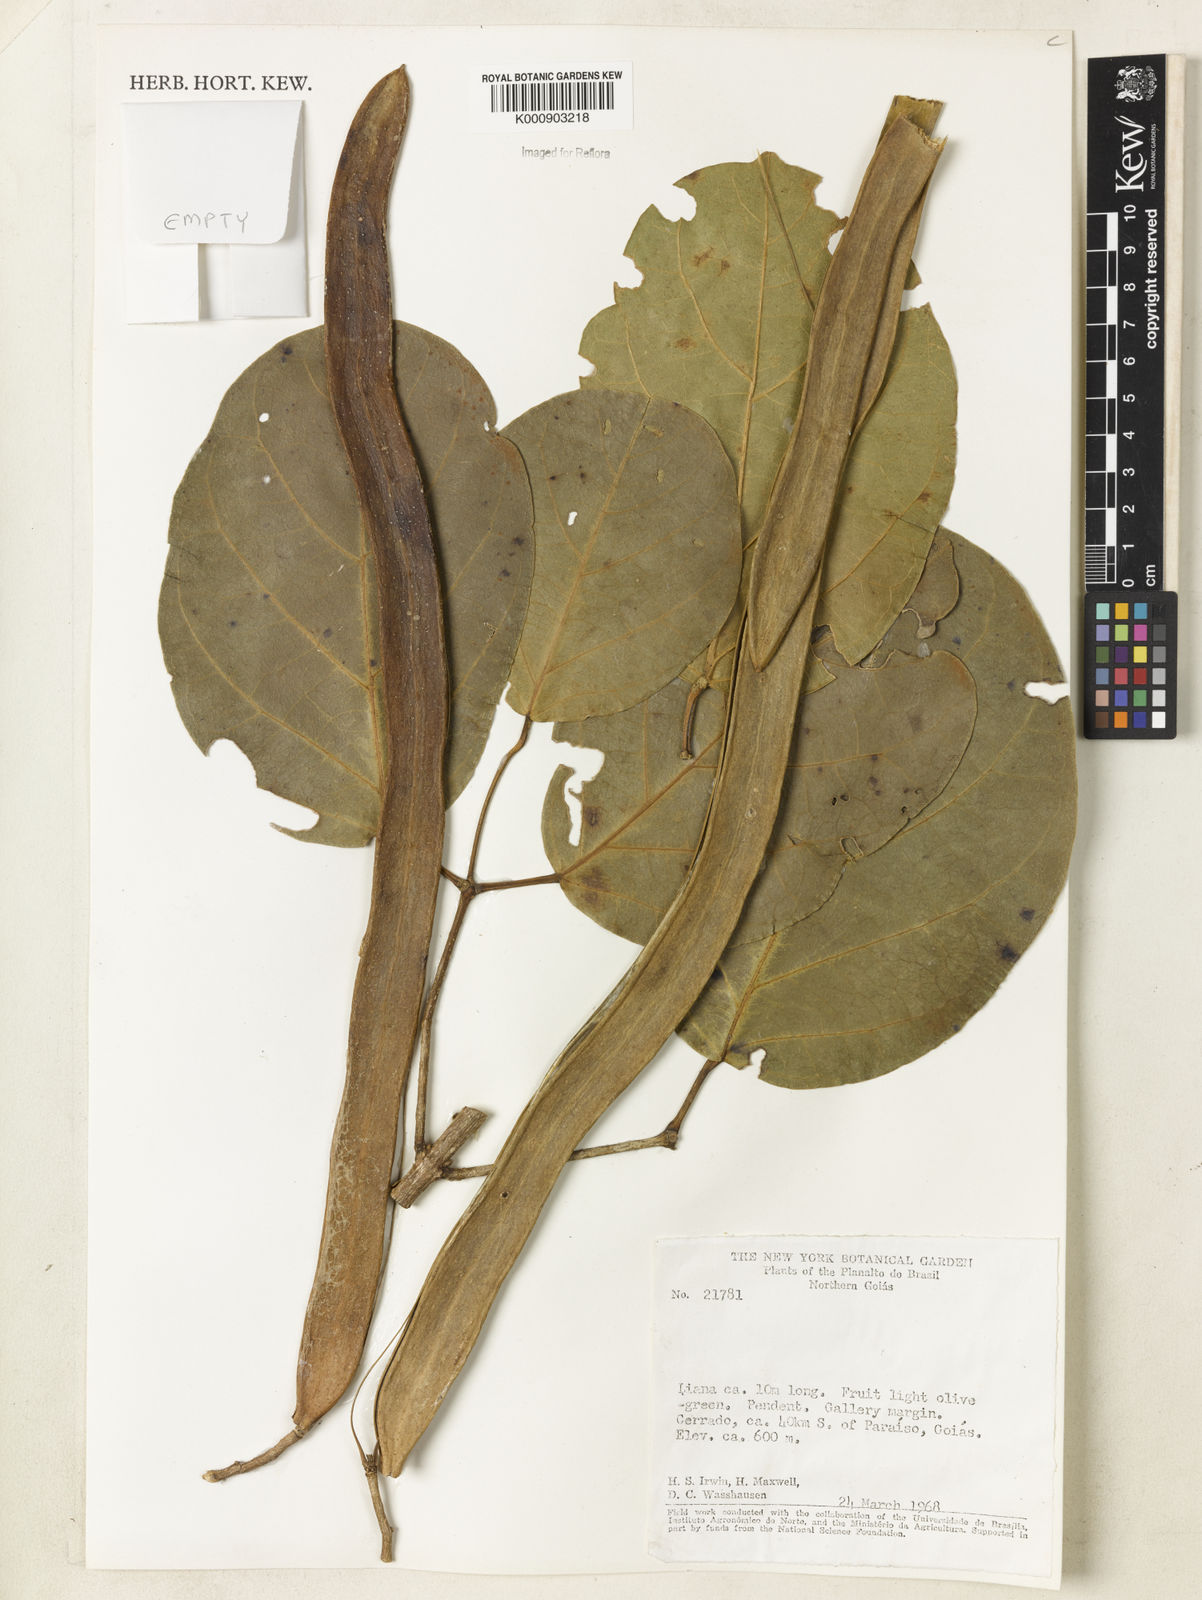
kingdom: Plantae
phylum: Tracheophyta
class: Magnoliopsida
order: Lamiales
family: Bignoniaceae
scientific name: Bignoniaceae
